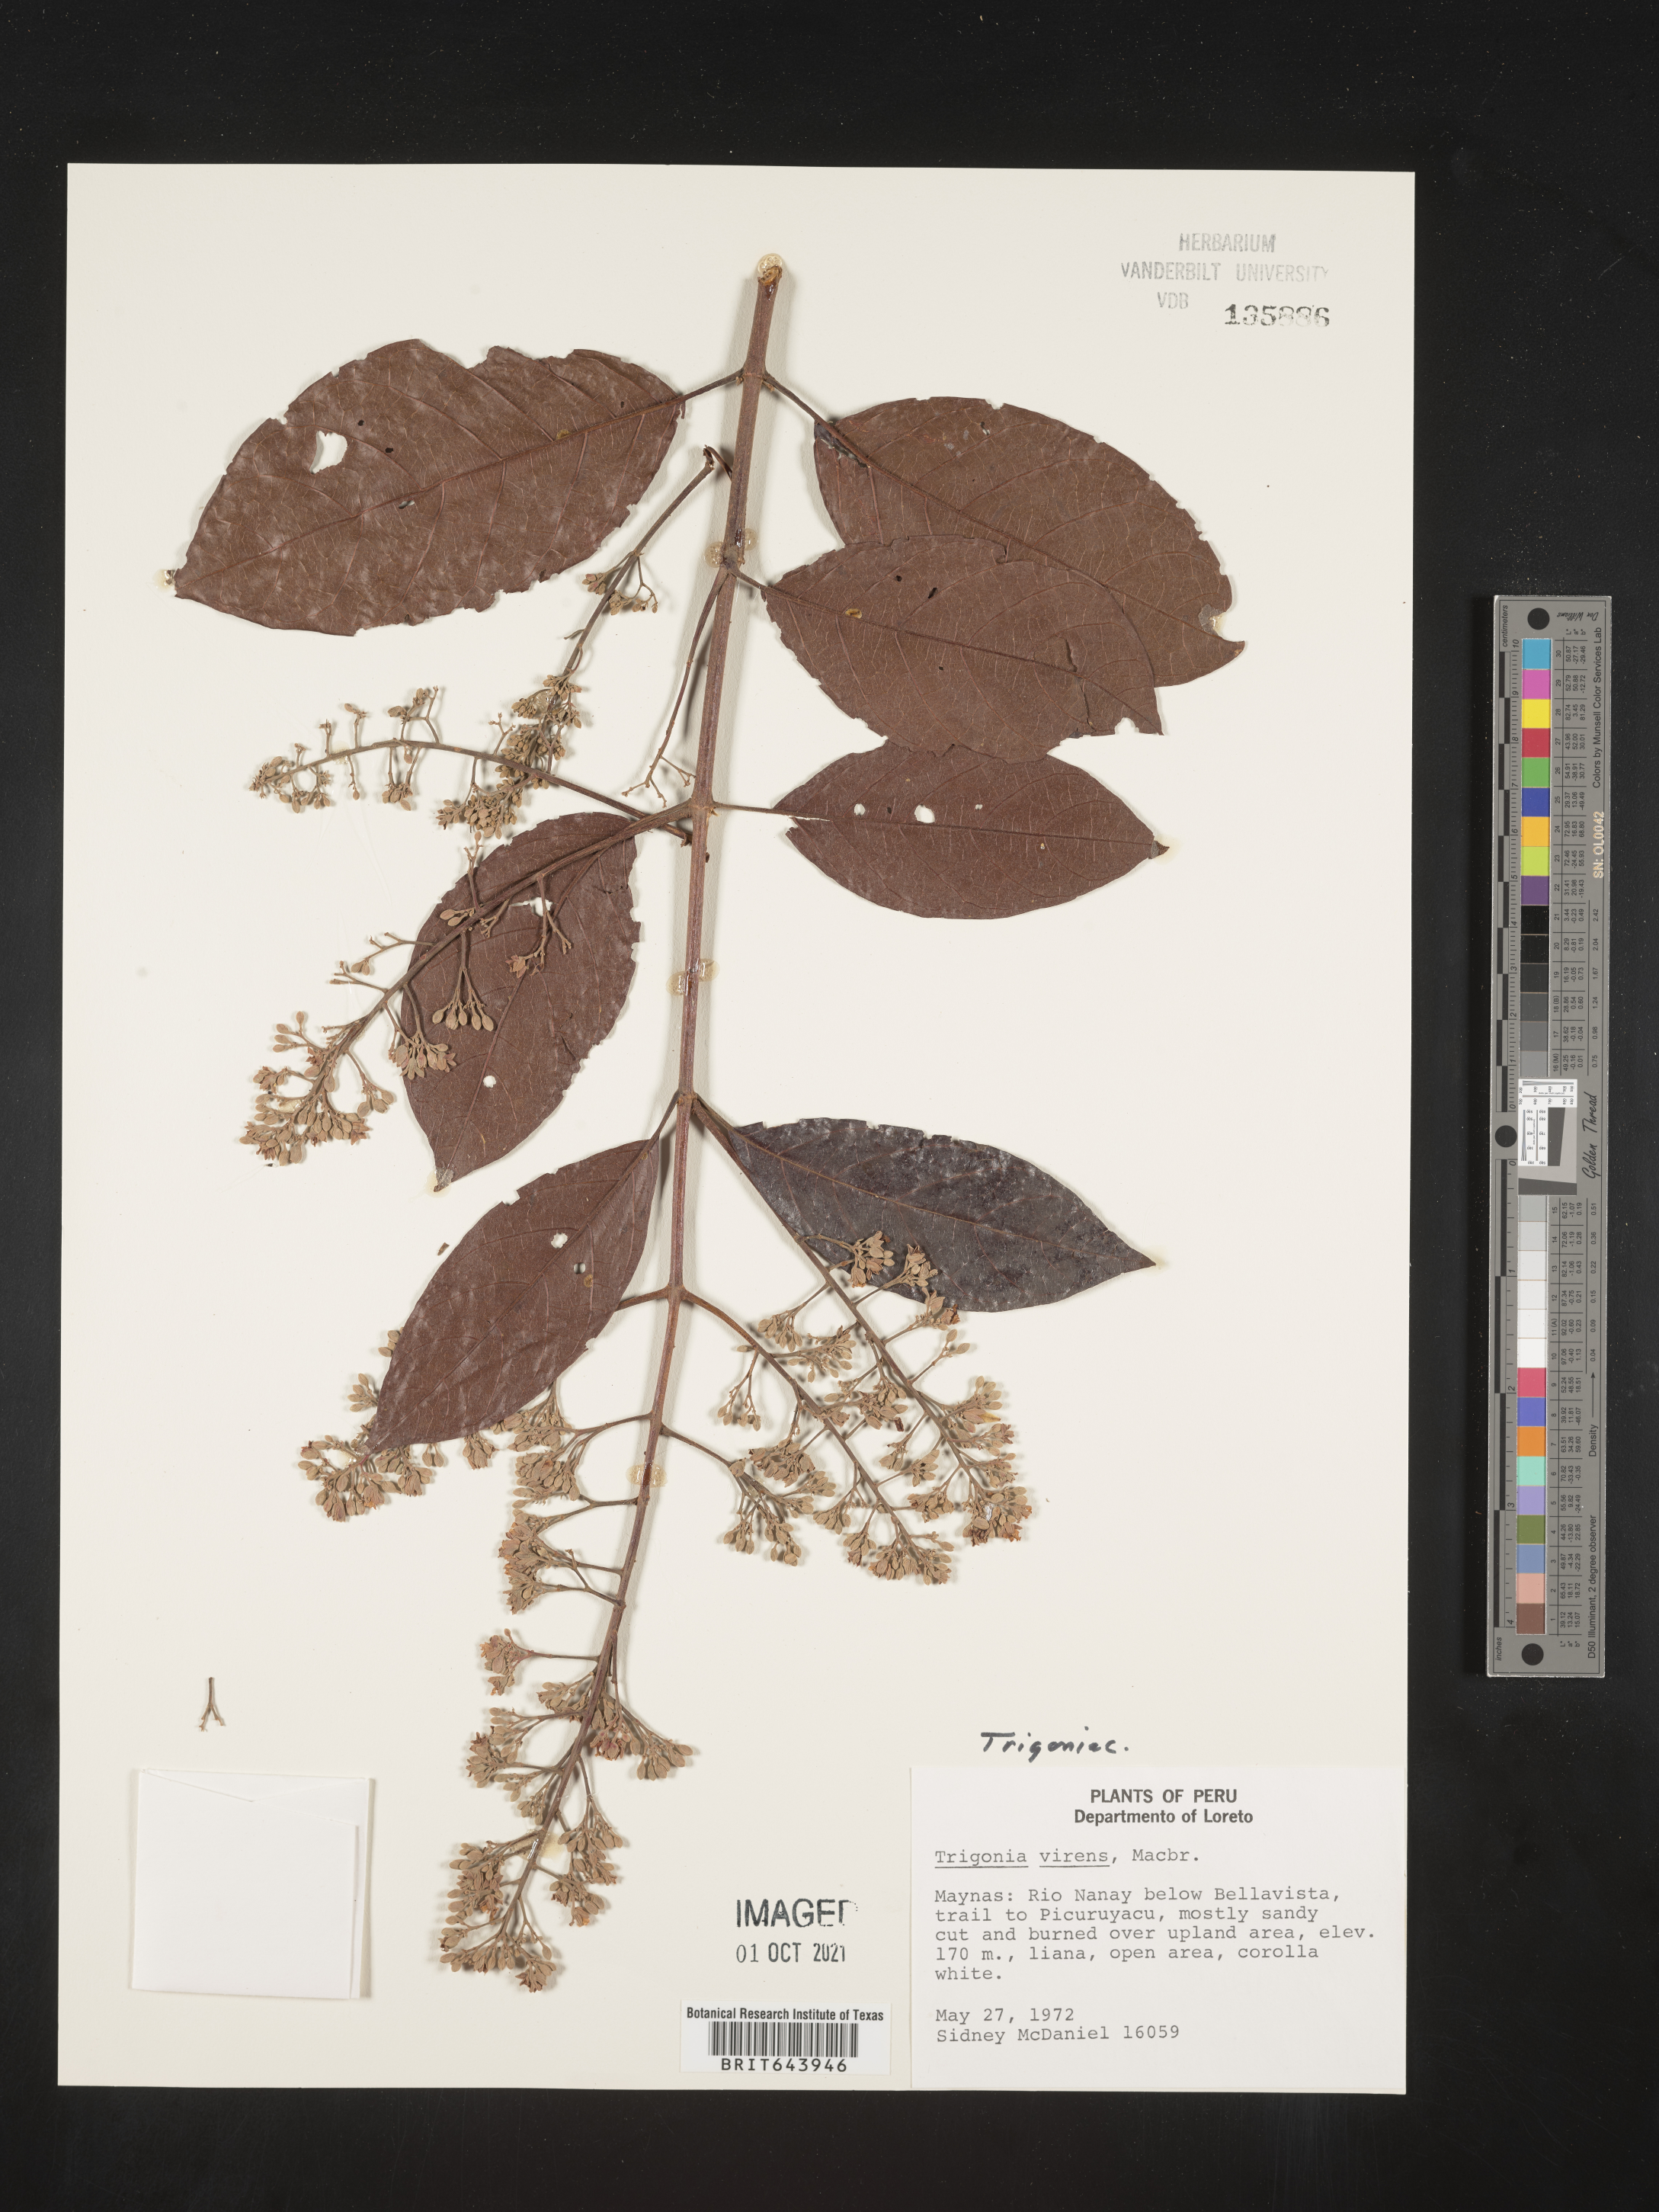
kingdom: Plantae
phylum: Tracheophyta
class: Magnoliopsida
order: Malpighiales
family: Trigoniaceae
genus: Trigonia
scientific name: Trigonia
